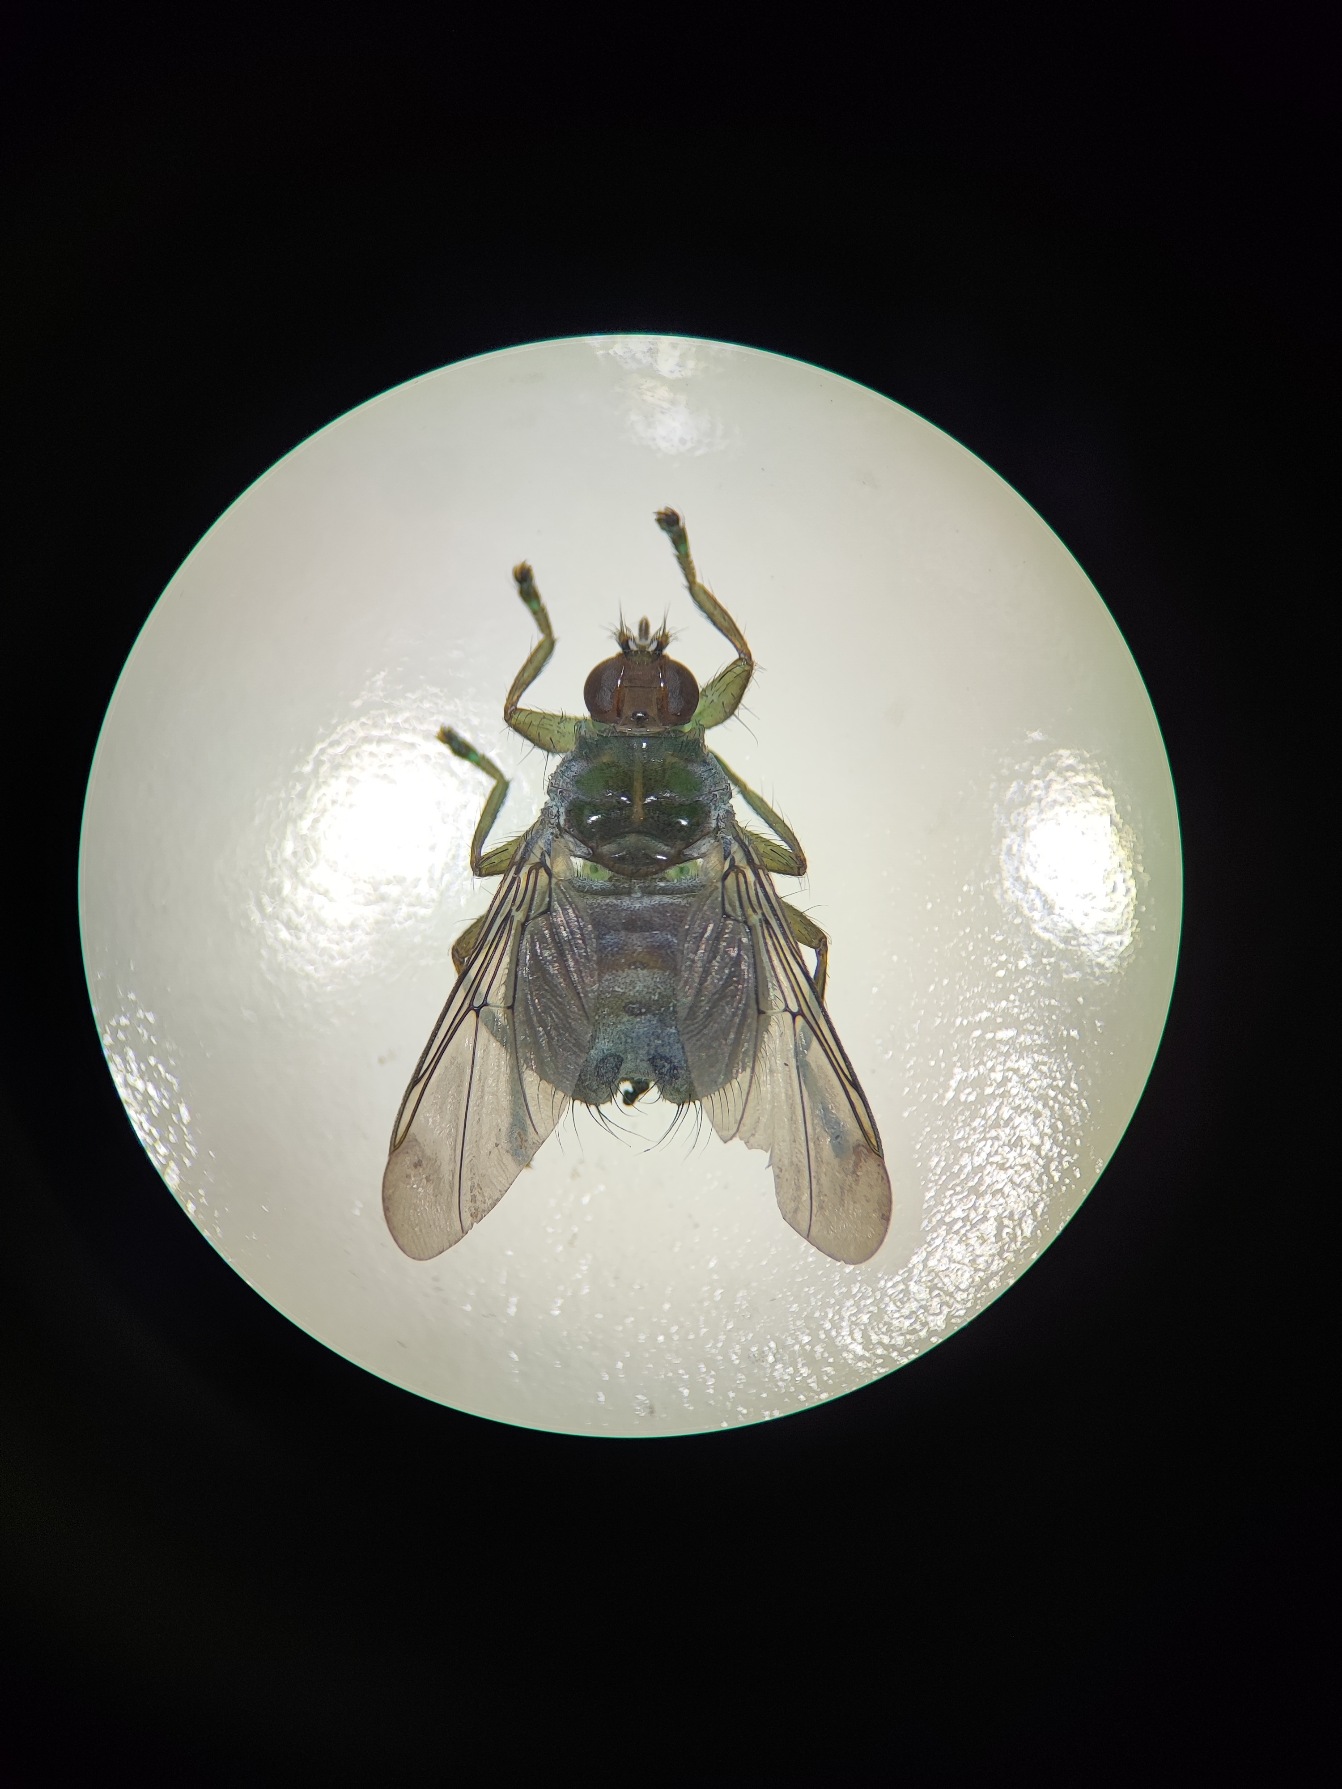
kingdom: Animalia
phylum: Arthropoda
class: Insecta
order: Diptera
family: Hippoboscidae
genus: Ornithomya
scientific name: Ornithomya avicularia
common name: Almindelig fuglelusflue
